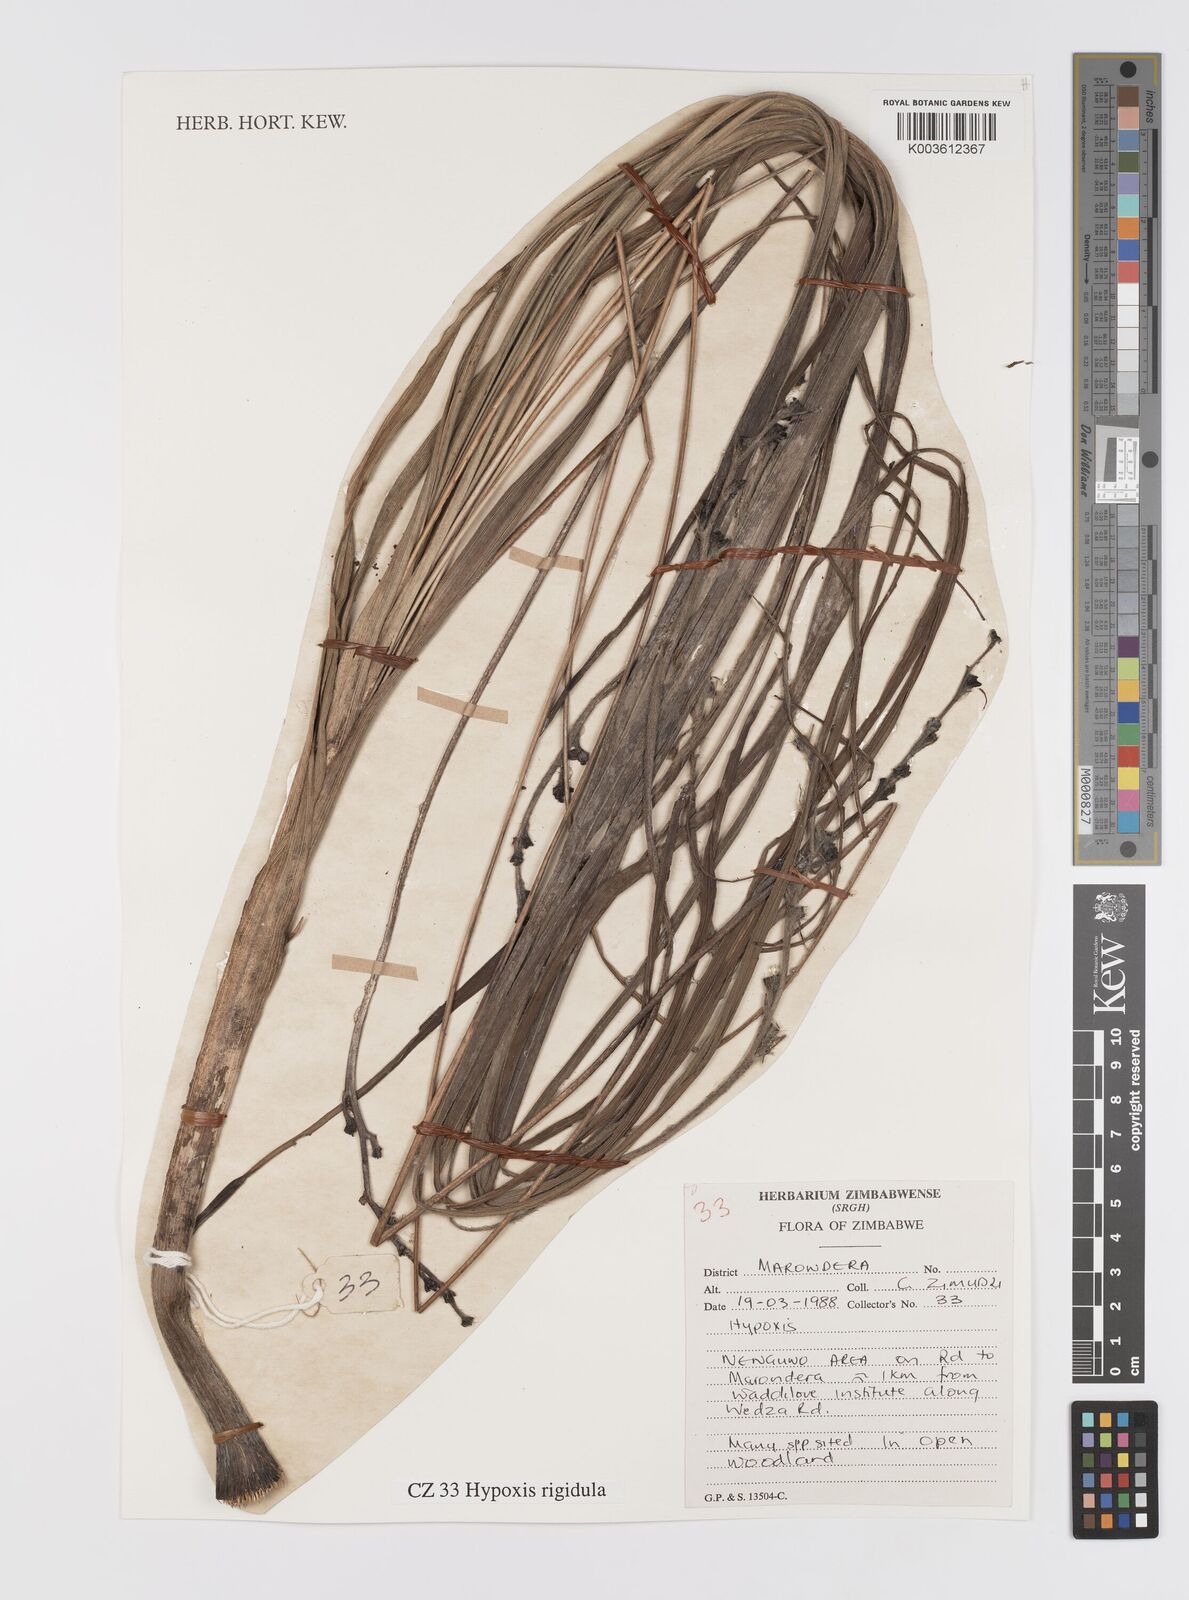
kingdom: Plantae
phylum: Tracheophyta
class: Liliopsida
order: Asparagales
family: Hypoxidaceae
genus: Hypoxis
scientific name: Hypoxis rigidula
